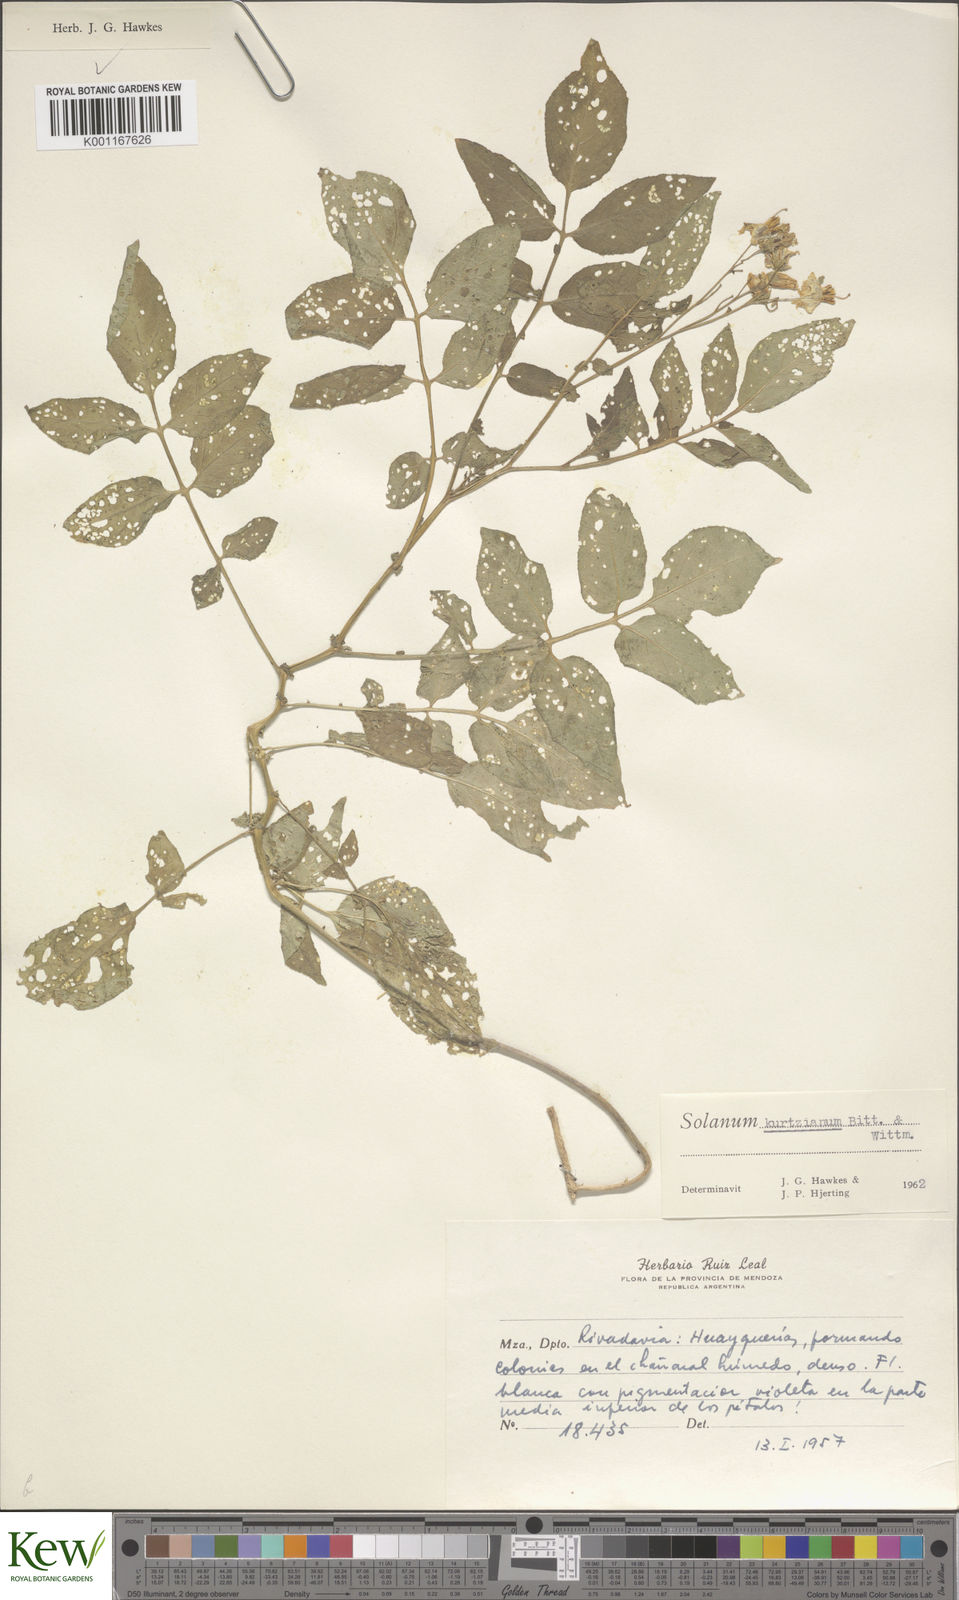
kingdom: Plantae
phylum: Tracheophyta
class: Magnoliopsida
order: Solanales
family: Solanaceae
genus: Solanum
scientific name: Solanum kurtzianum
